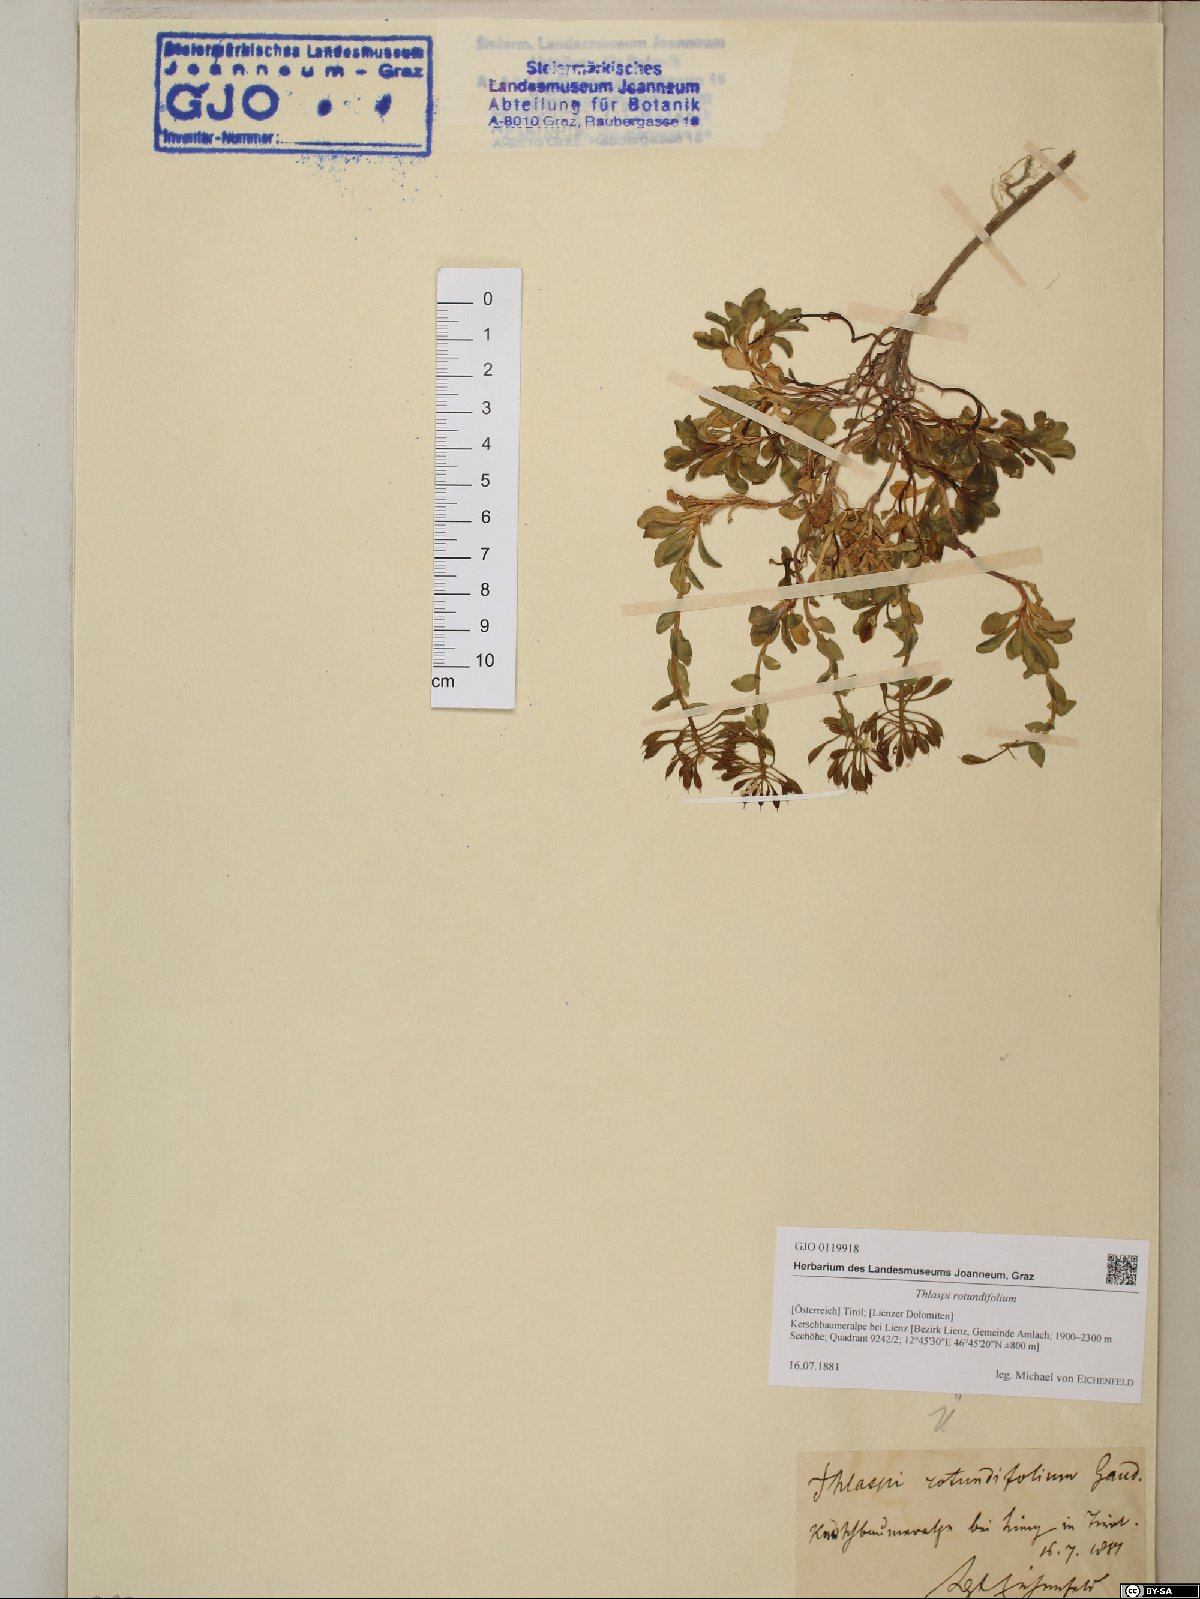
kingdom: Plantae
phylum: Tracheophyta
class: Magnoliopsida
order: Brassicales
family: Brassicaceae
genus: Noccaea
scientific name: Noccaea rotundifolia
